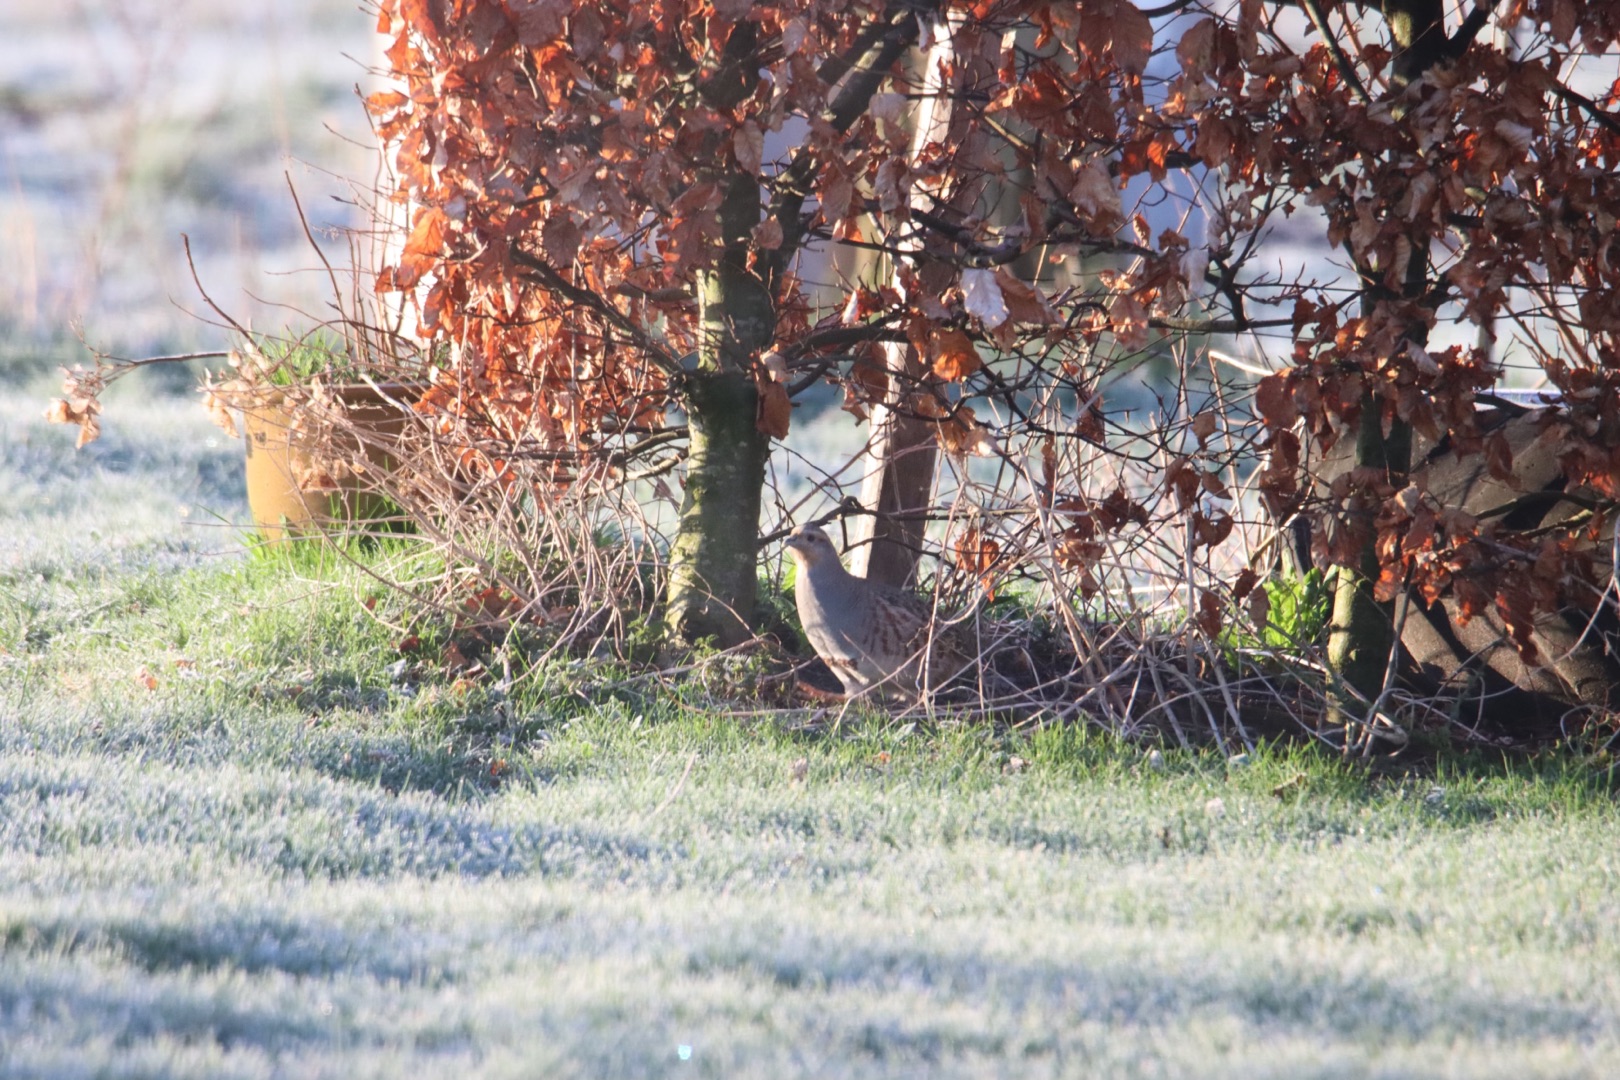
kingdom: Animalia
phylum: Chordata
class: Aves
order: Galliformes
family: Phasianidae
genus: Perdix
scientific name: Perdix perdix
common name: Agerhøne
